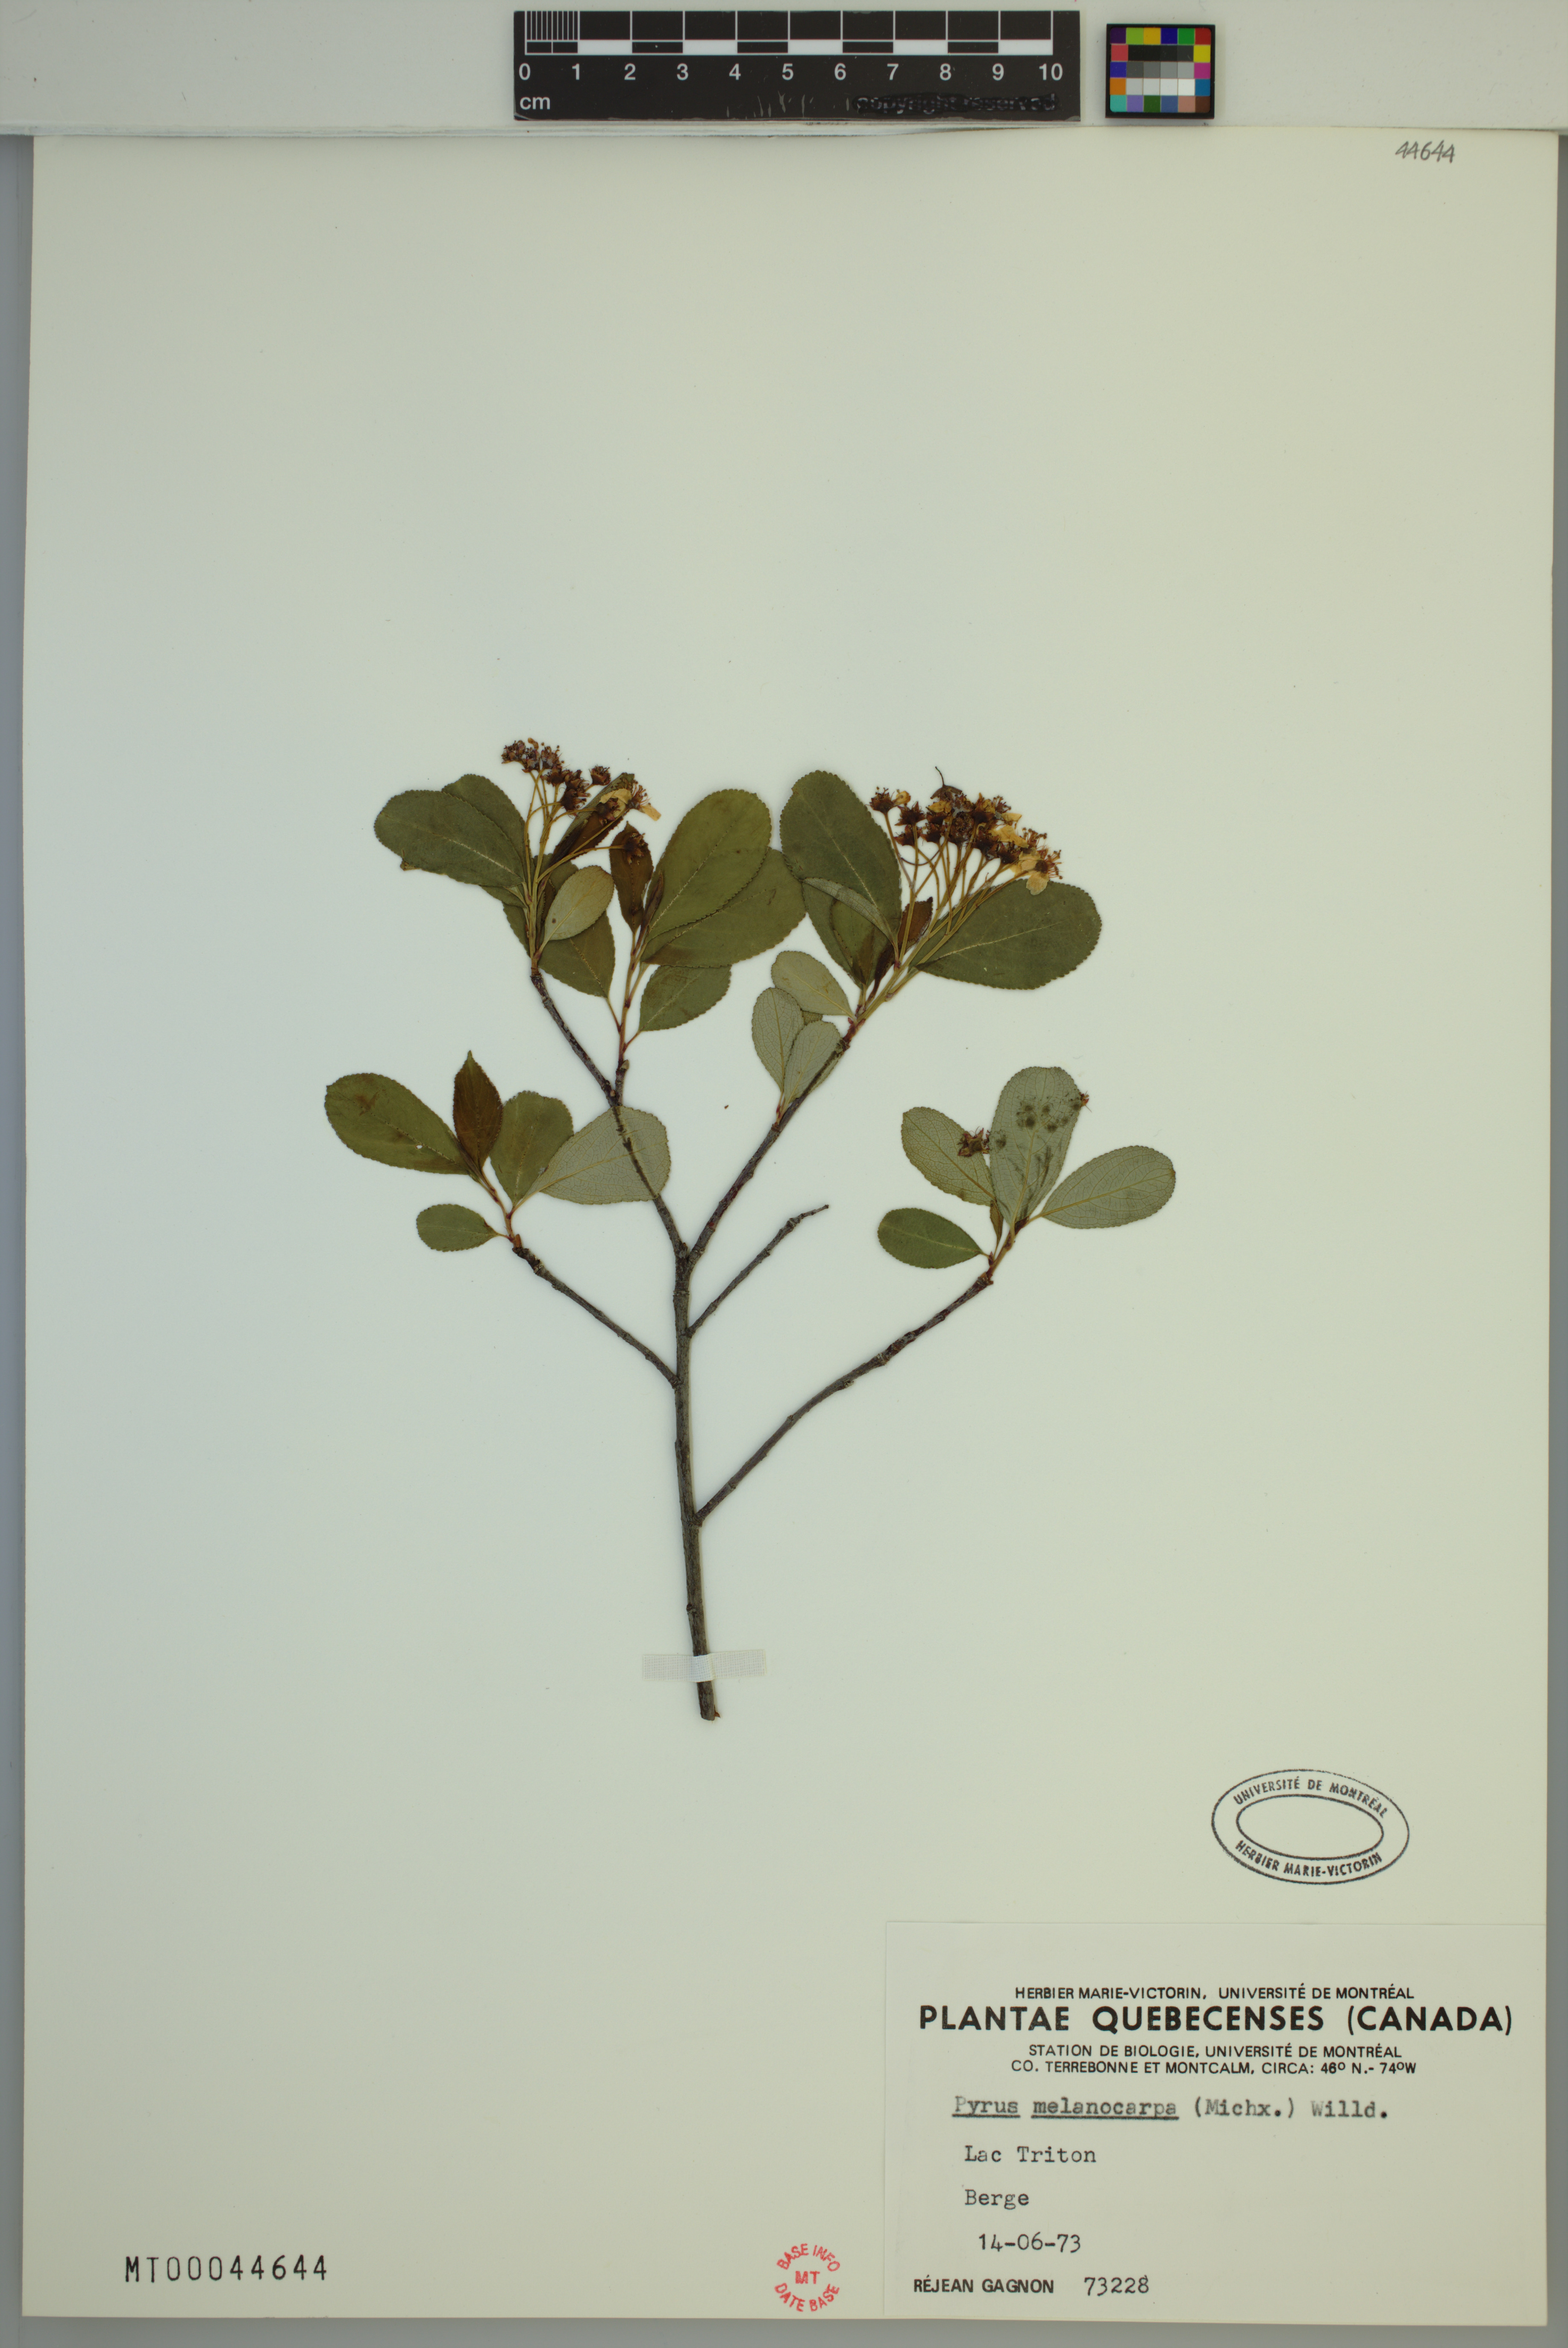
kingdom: Plantae
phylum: Tracheophyta
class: Magnoliopsida
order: Rosales
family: Rosaceae
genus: Aronia
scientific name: Aronia melanocarpa
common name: Black chokeberry
